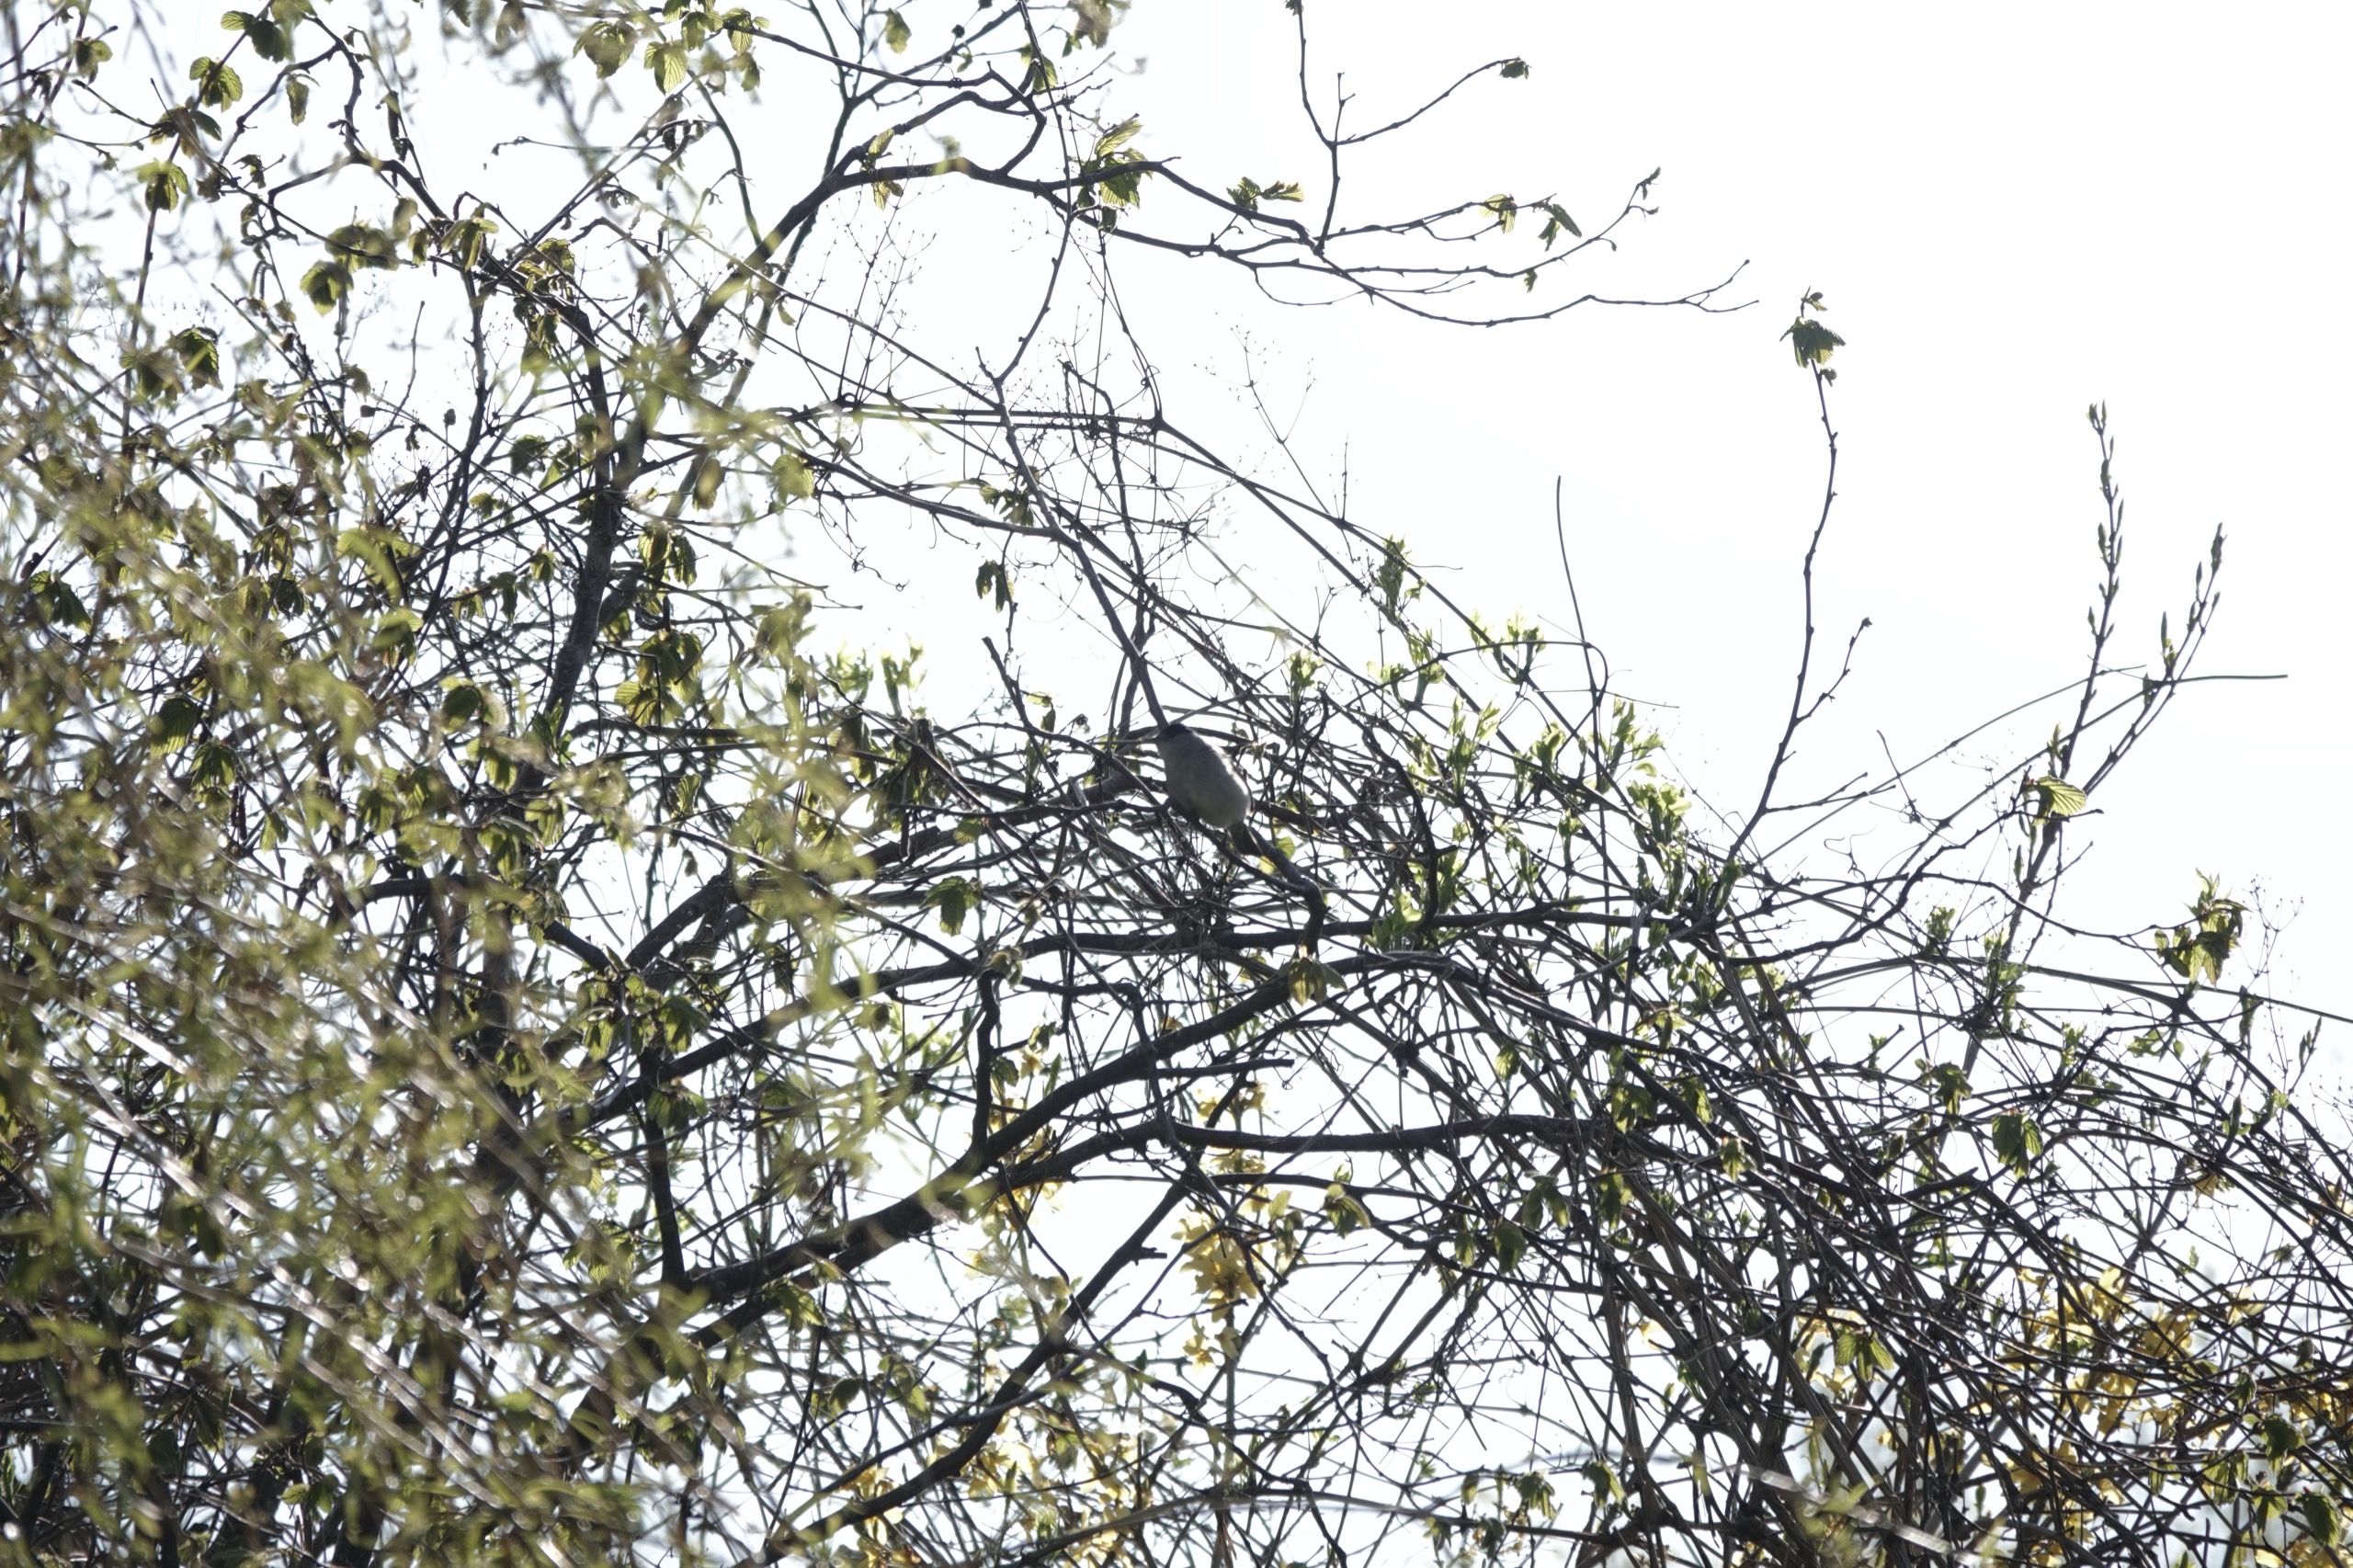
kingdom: Animalia
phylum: Chordata
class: Aves
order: Passeriformes
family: Sylviidae
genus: Sylvia
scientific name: Sylvia atricapilla
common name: Munk
